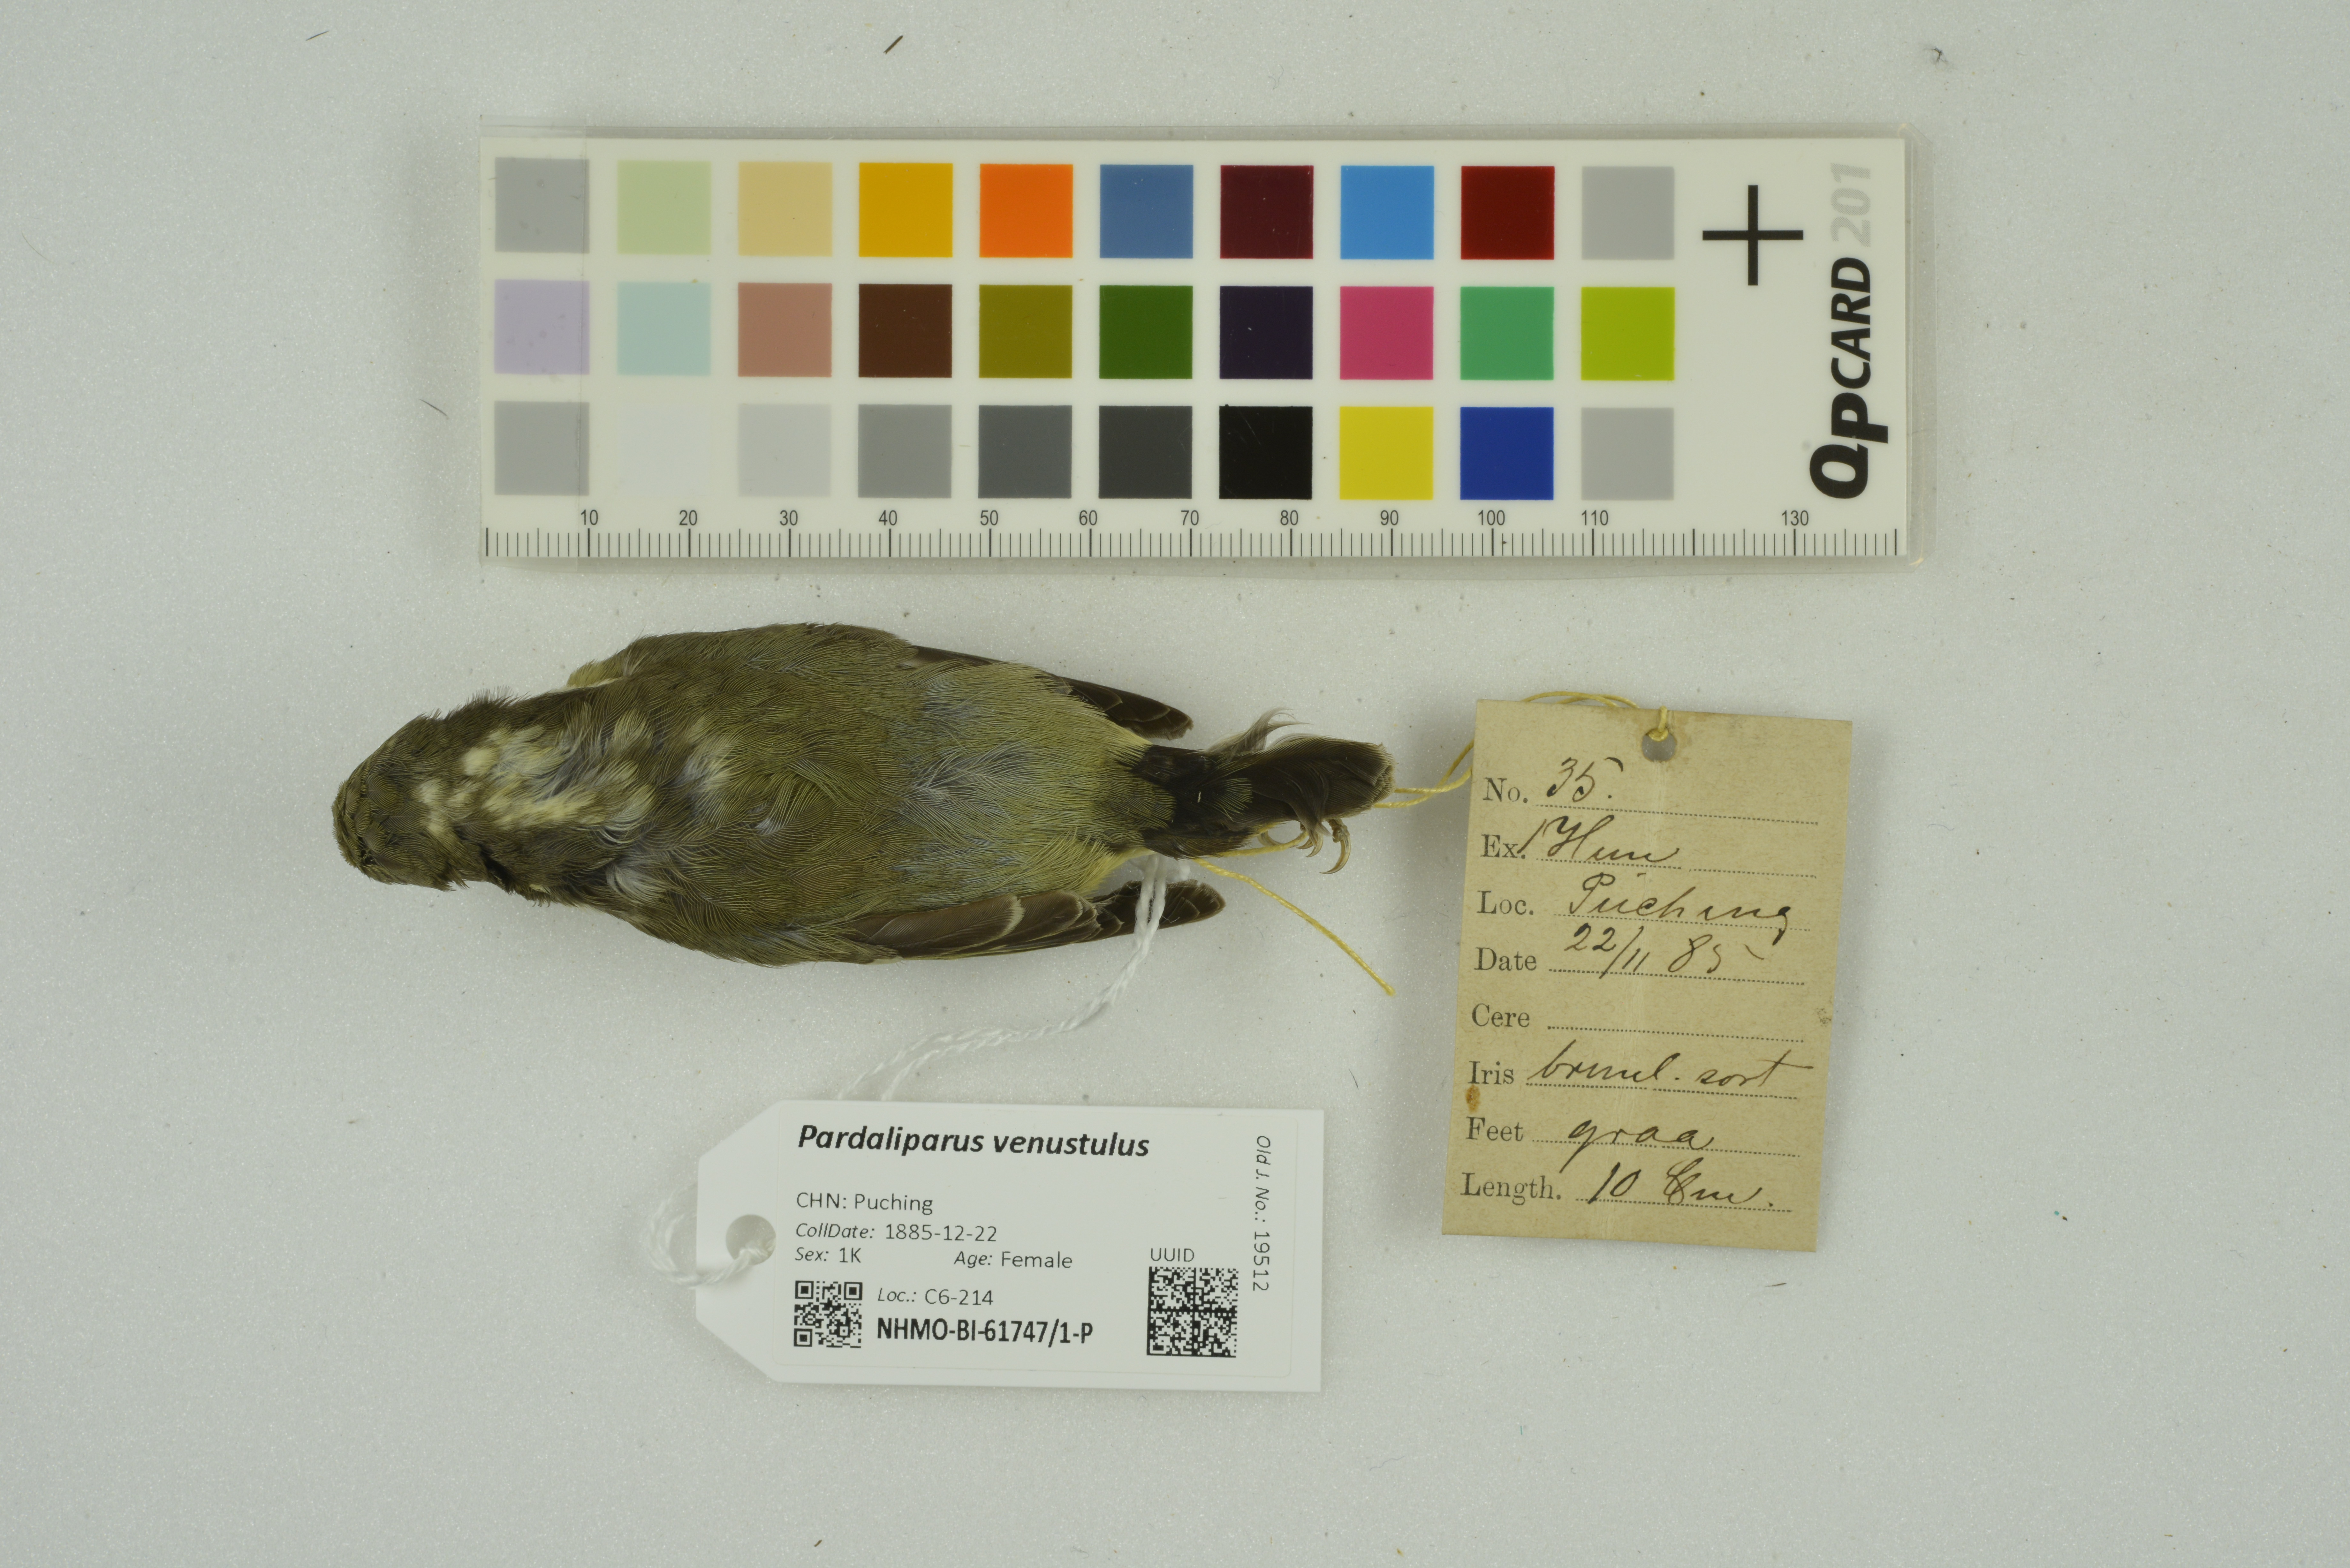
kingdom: Animalia
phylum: Chordata
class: Aves
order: Passeriformes
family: Paridae
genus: Periparus
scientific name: Periparus venustulus
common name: Yellow-bellied tit
